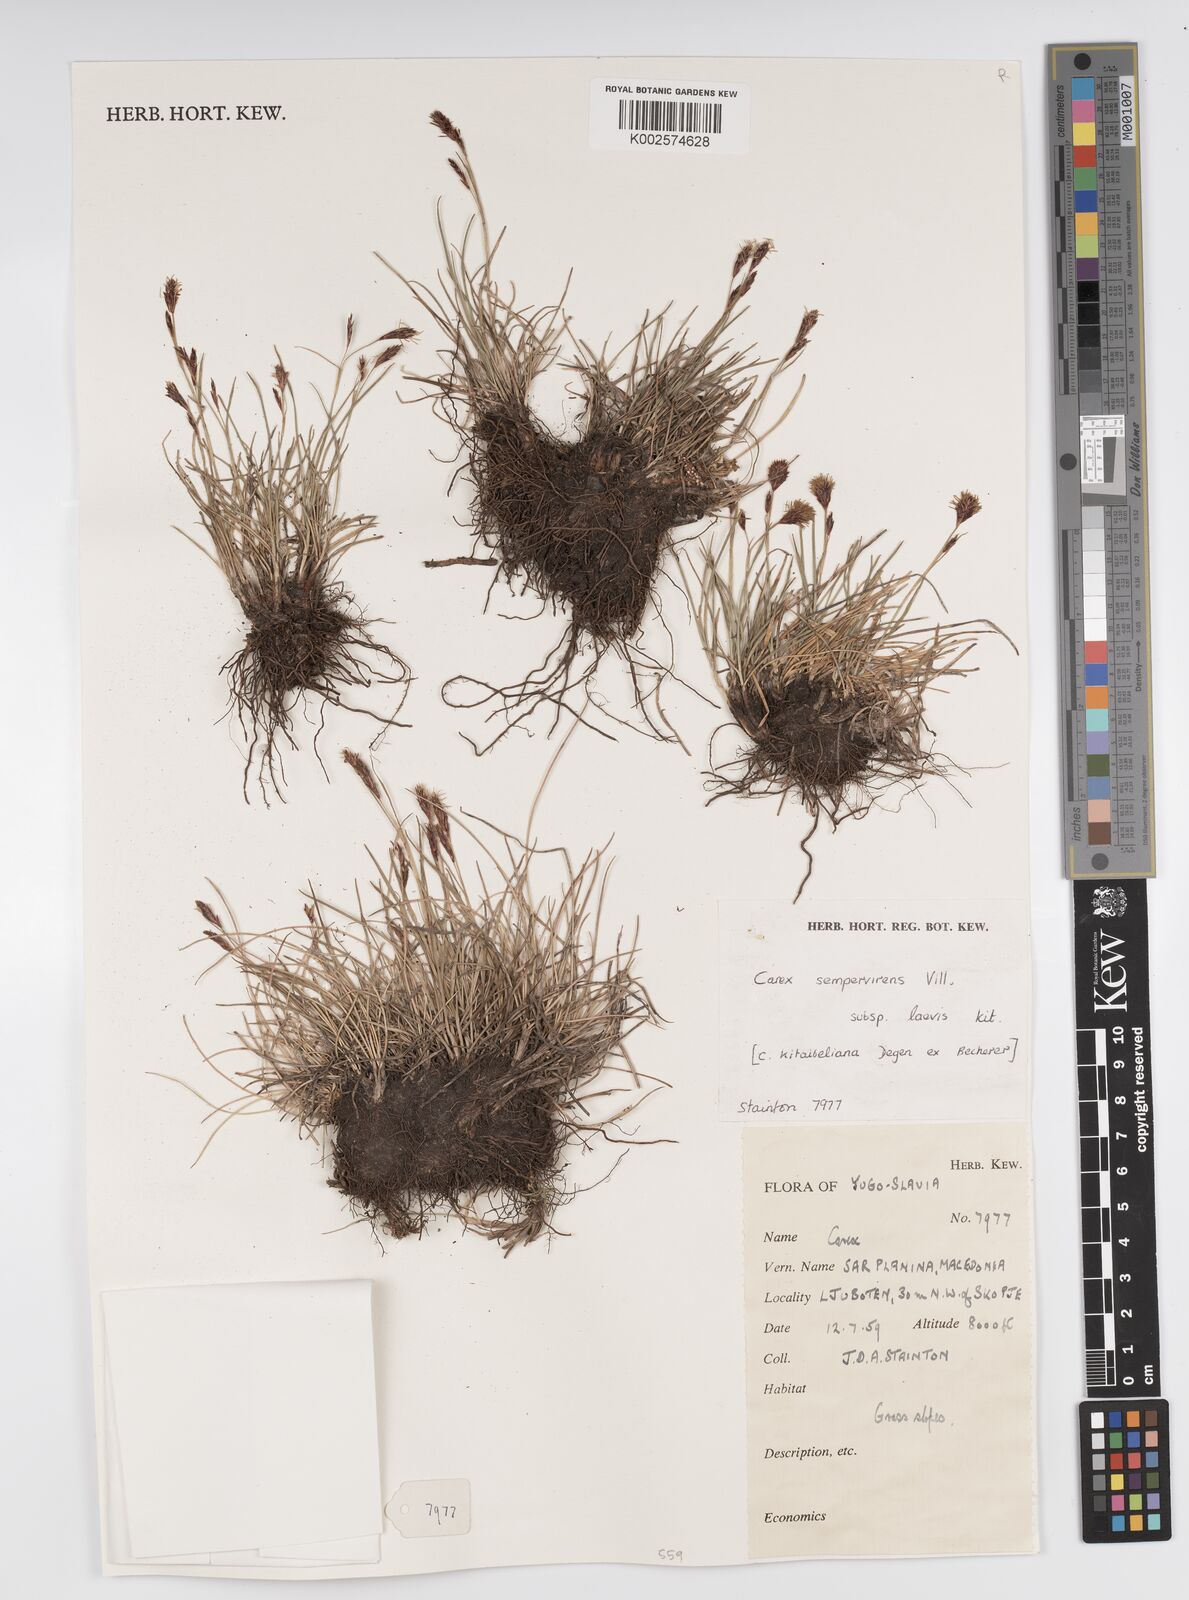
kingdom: Plantae
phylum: Tracheophyta
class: Liliopsida
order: Poales
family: Cyperaceae
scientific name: Cyperaceae
